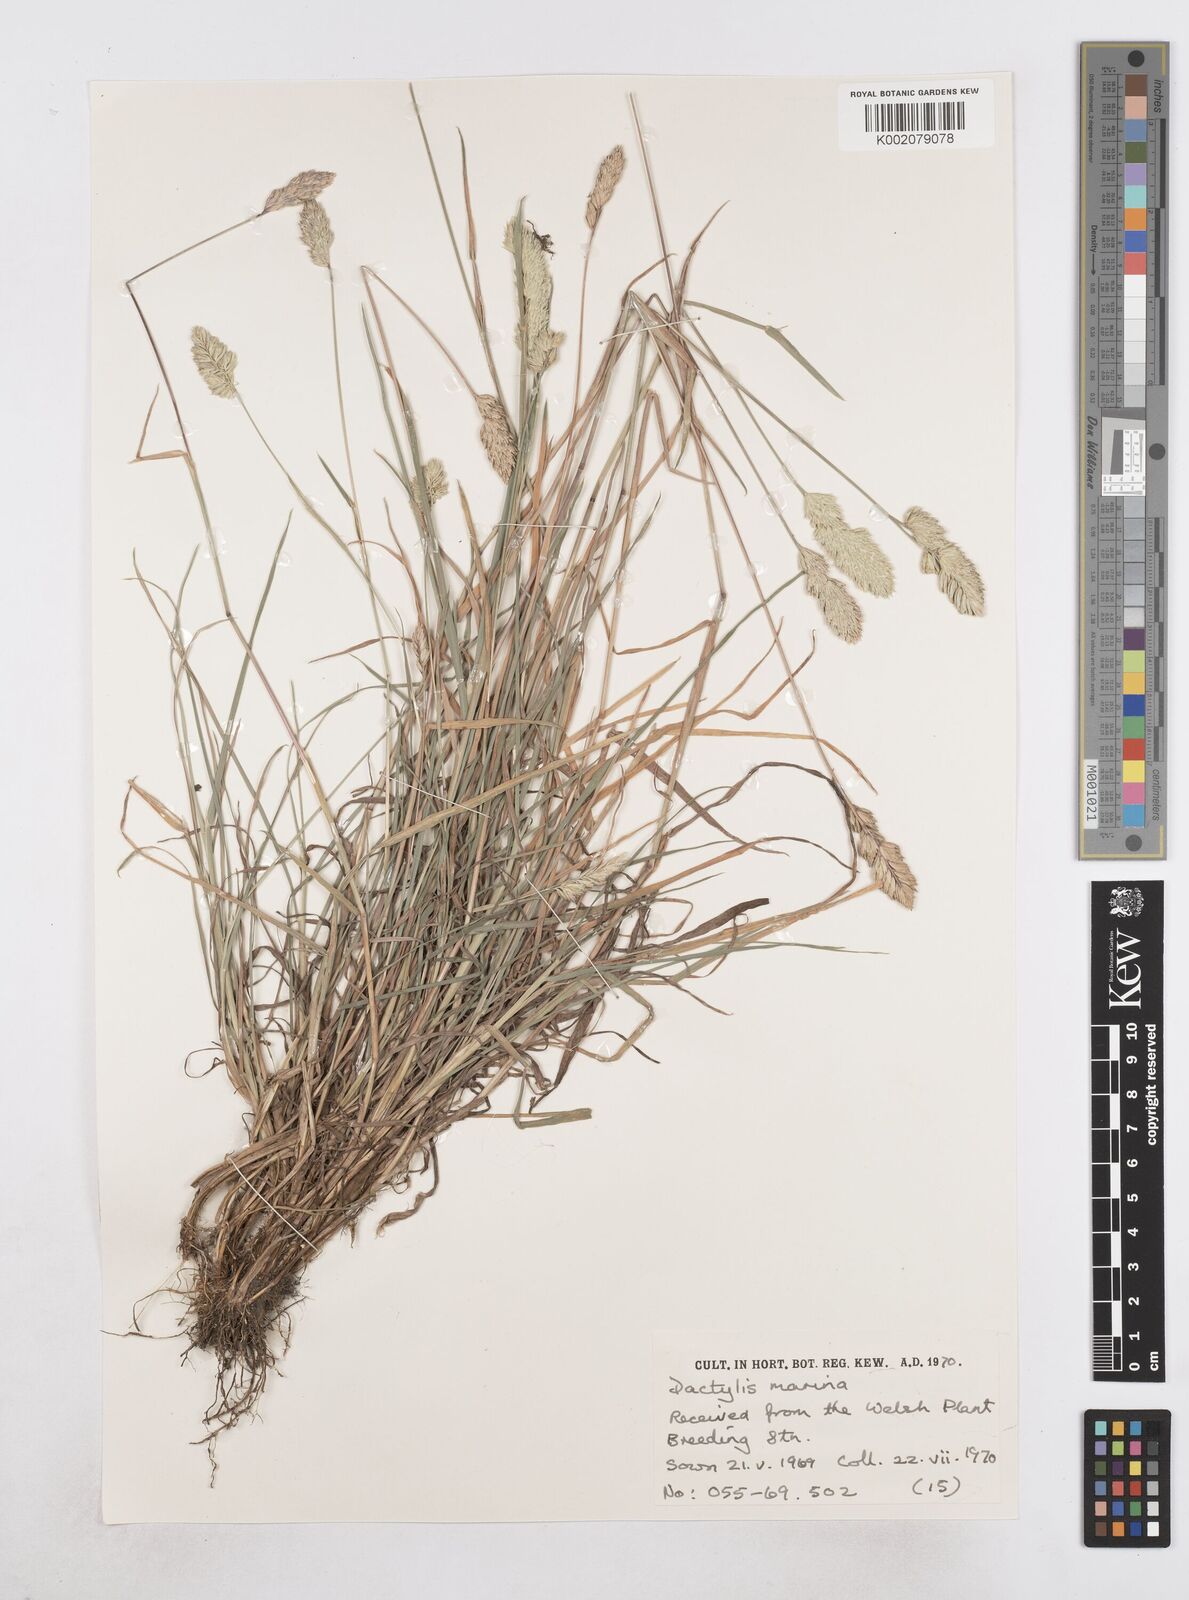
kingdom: Plantae
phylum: Tracheophyta
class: Liliopsida
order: Poales
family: Poaceae
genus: Dactylis
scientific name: Dactylis glomerata
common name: Orchardgrass
